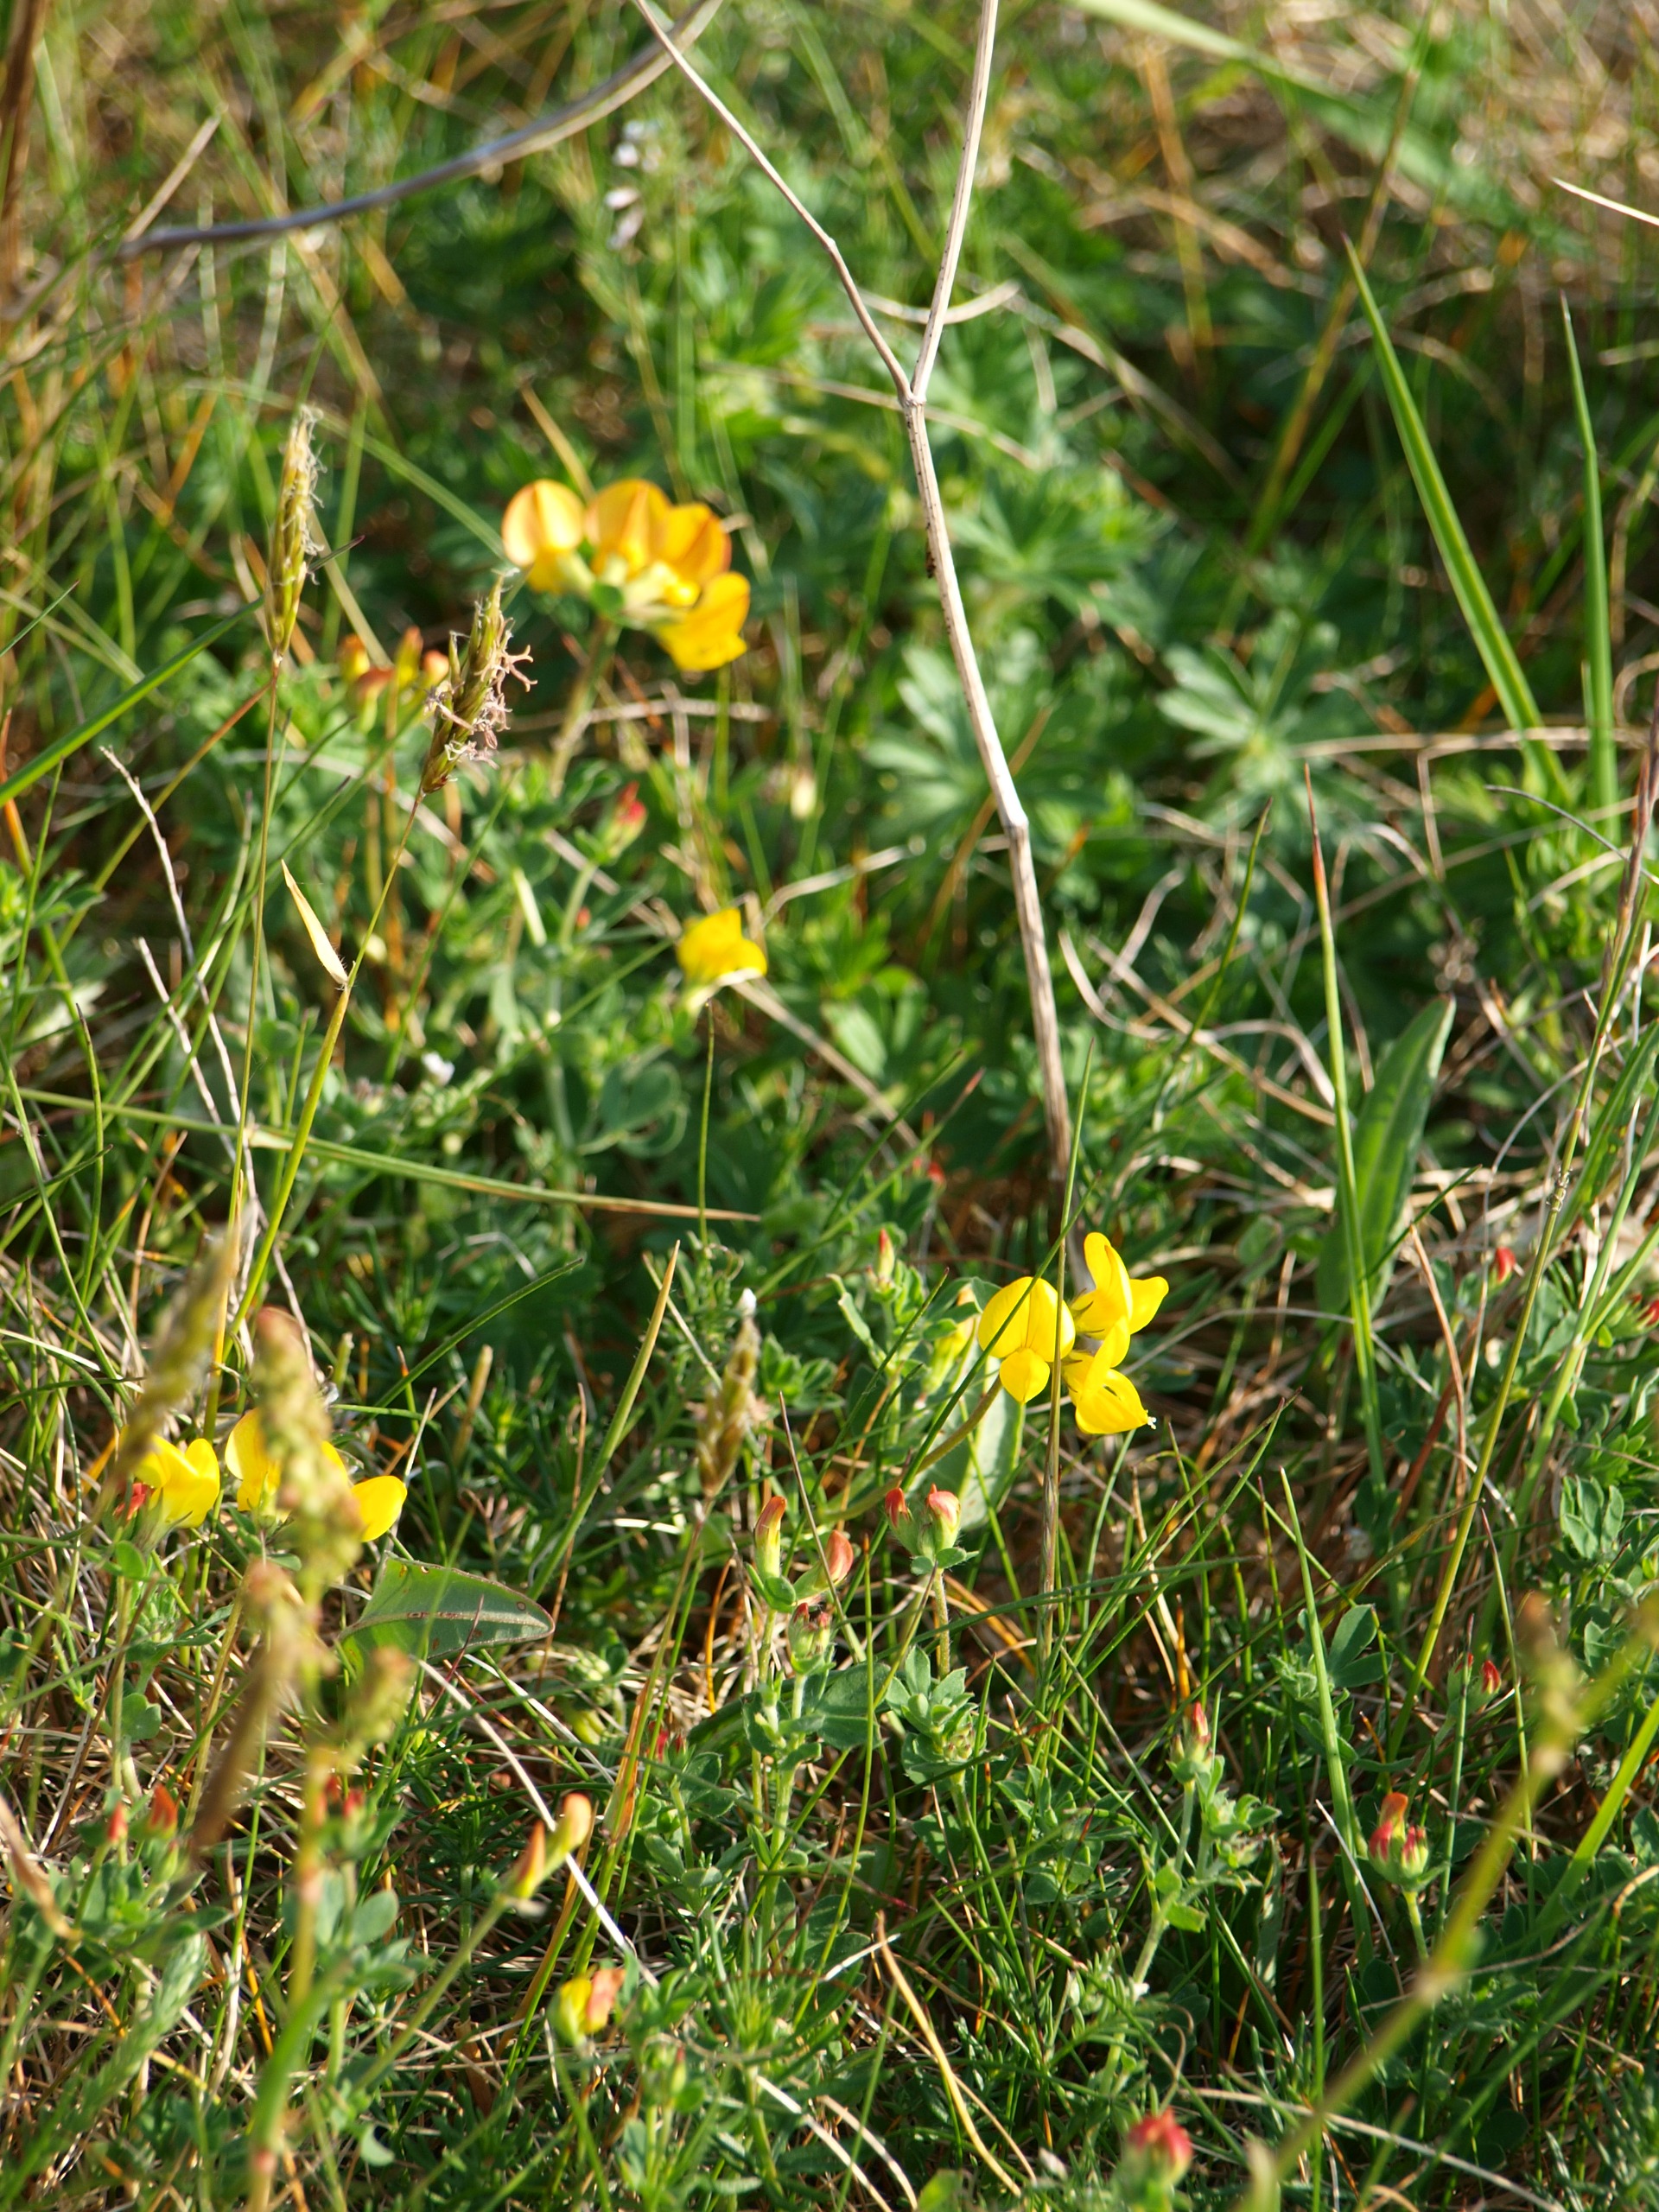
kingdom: Plantae
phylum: Tracheophyta
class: Magnoliopsida
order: Fabales
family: Fabaceae
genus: Lotus
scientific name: Lotus corniculatus
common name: Almindelig kællingetand
